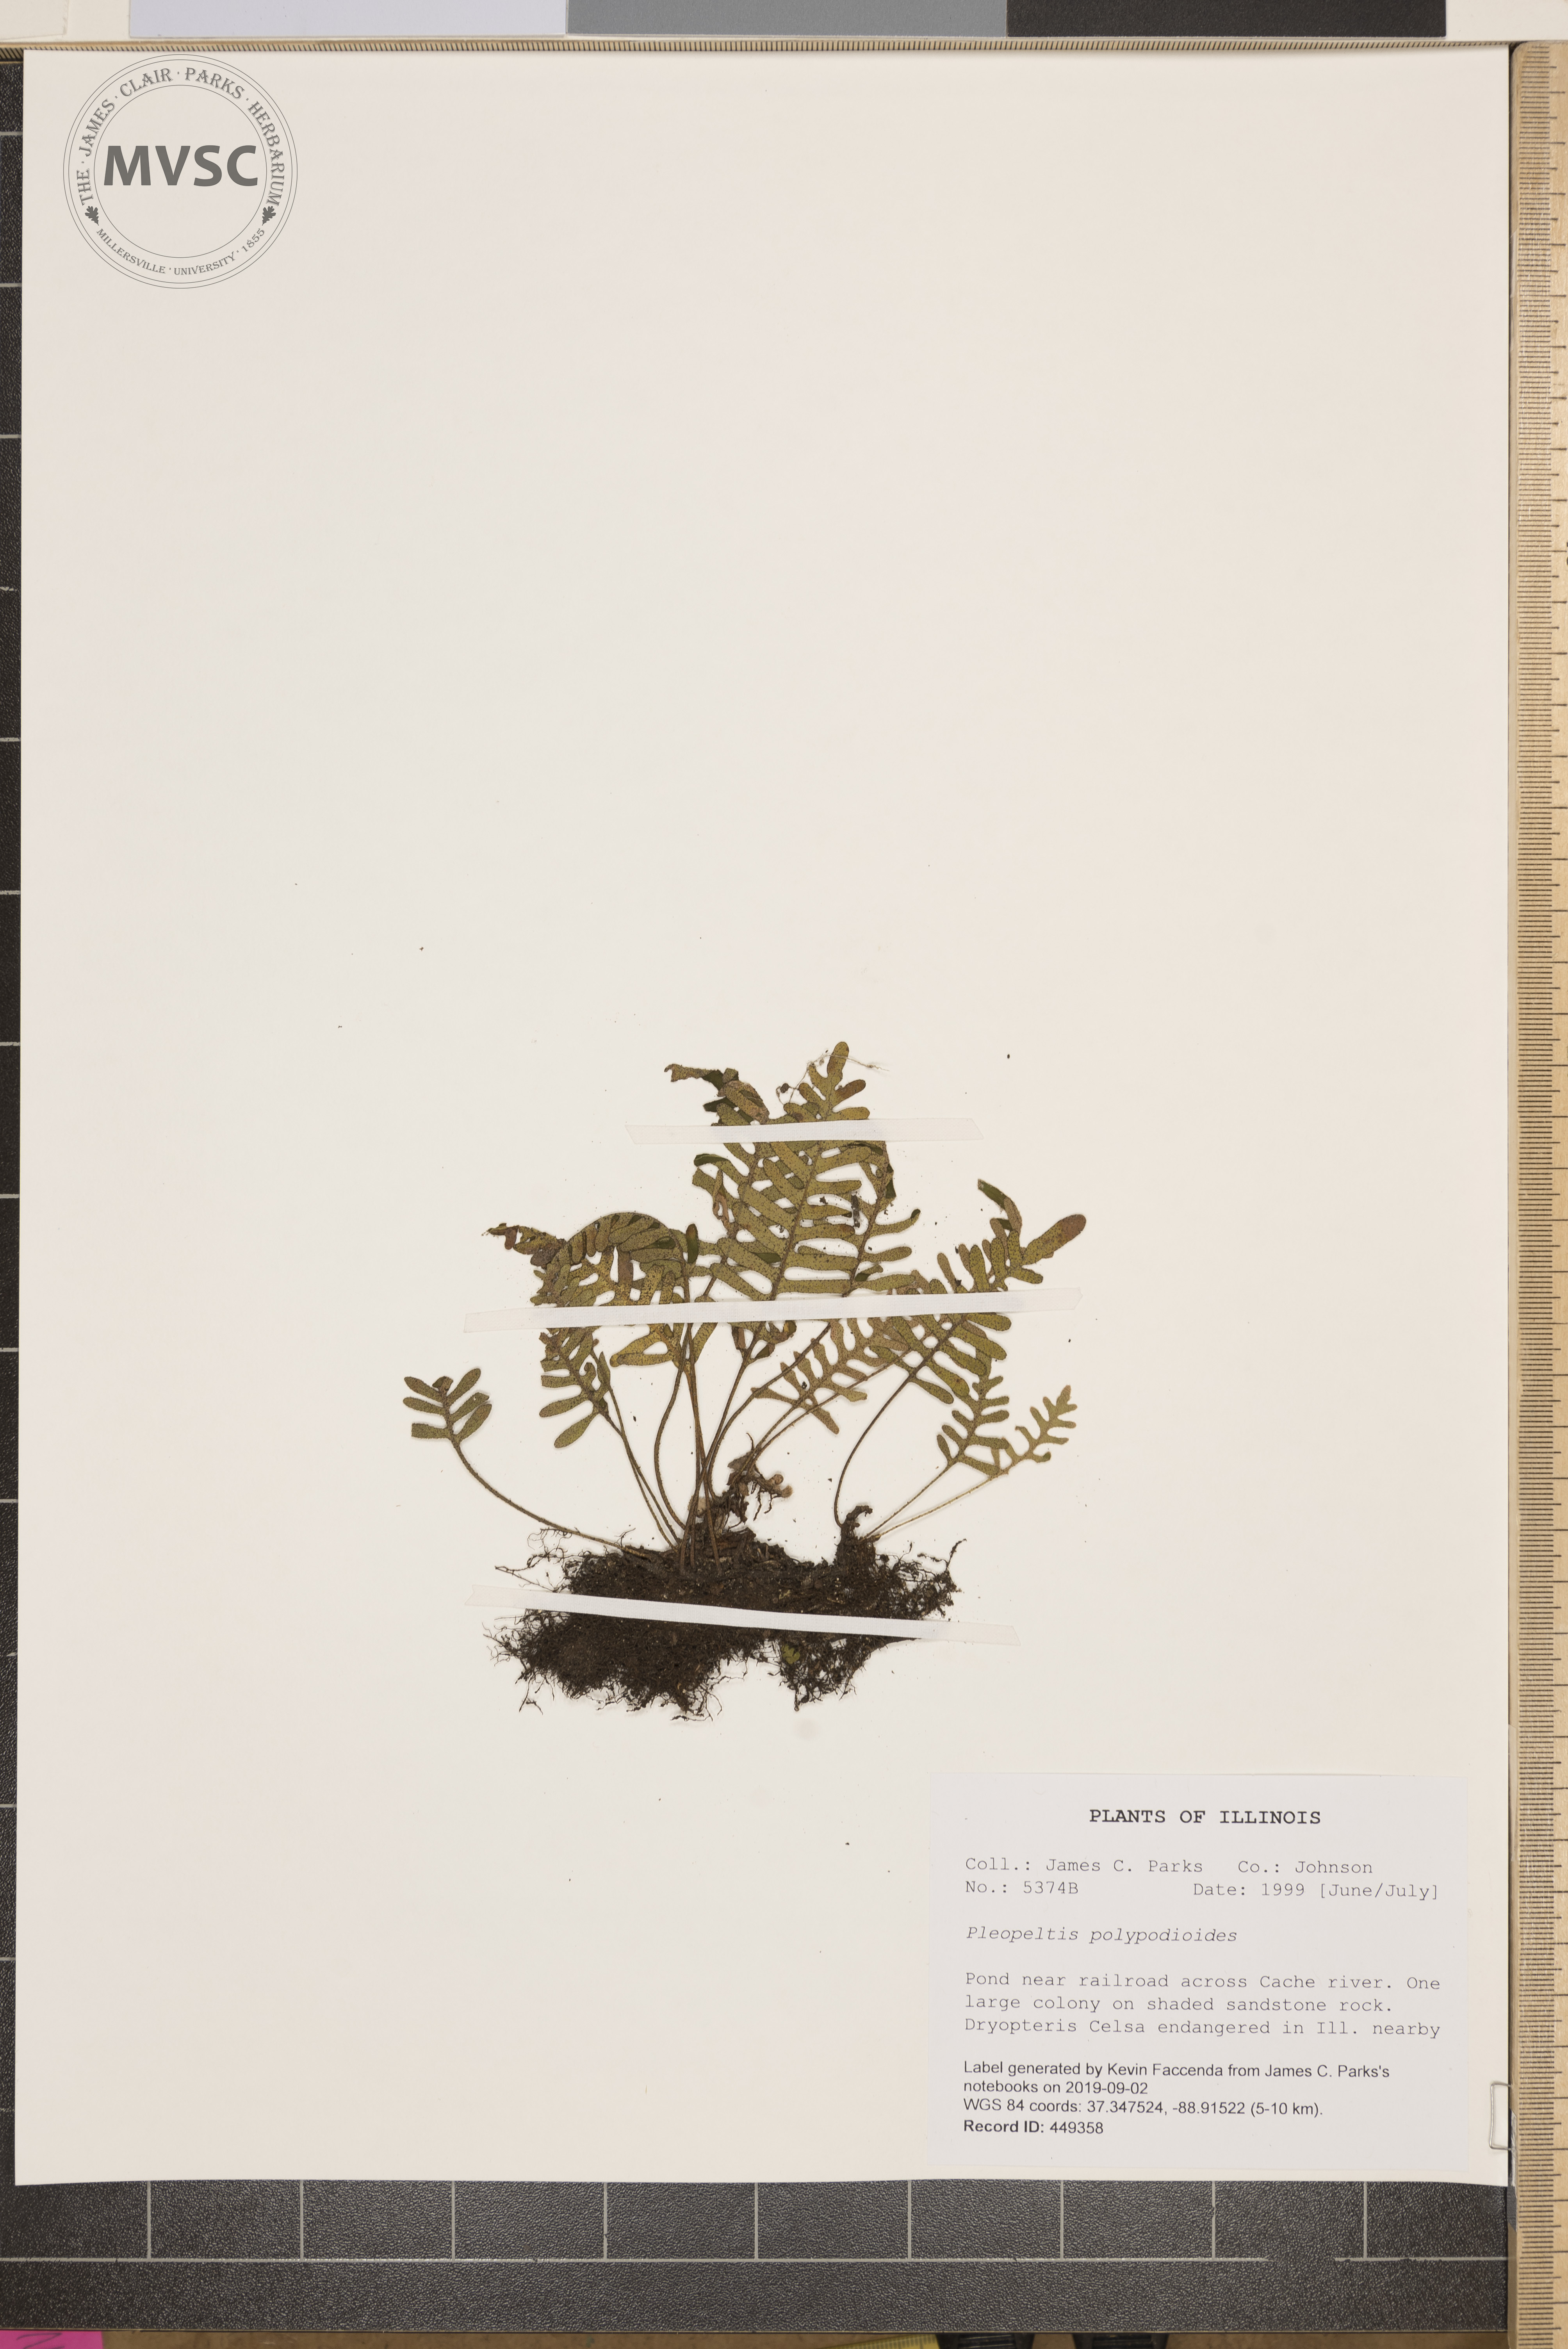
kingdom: Plantae
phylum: Tracheophyta
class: Polypodiopsida
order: Polypodiales
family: Polypodiaceae
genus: Pleopeltis
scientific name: Pleopeltis polypodioides
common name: Resurrection fern
